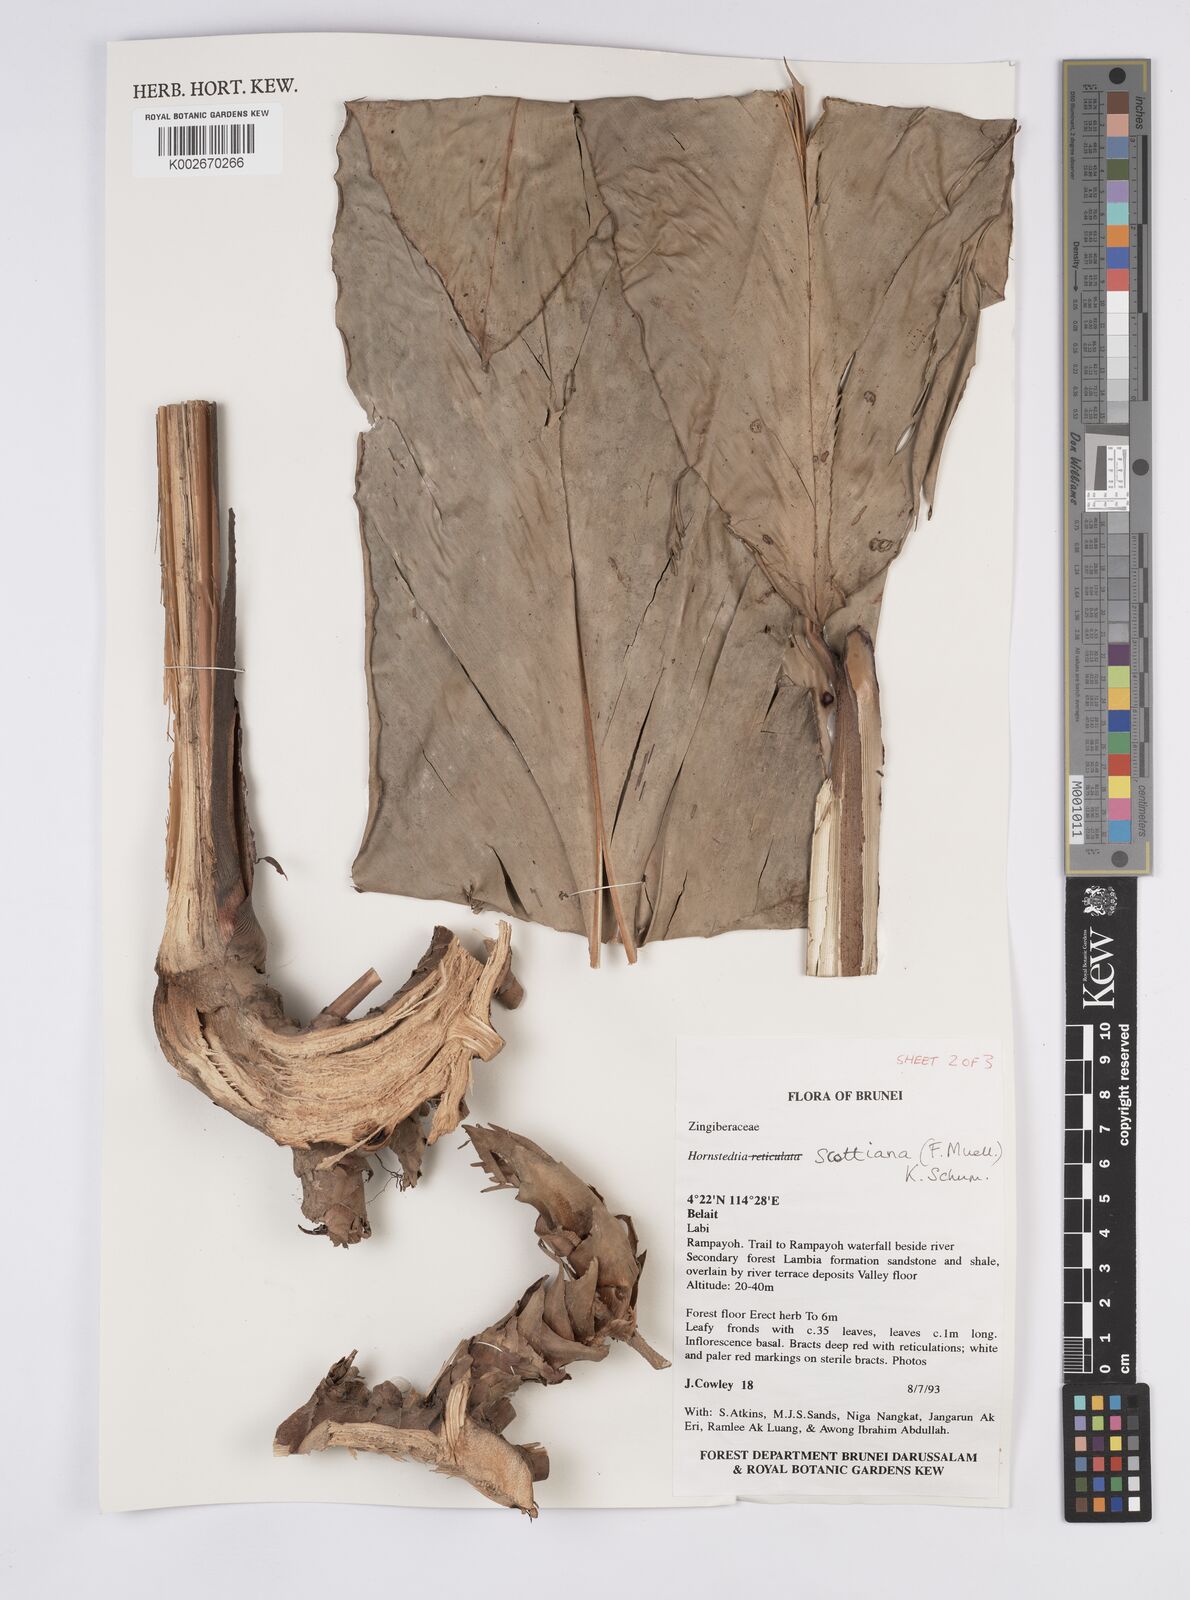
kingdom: Plantae
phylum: Tracheophyta
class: Liliopsida
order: Zingiberales
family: Zingiberaceae
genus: Hornstedtia
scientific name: Hornstedtia scottiana
